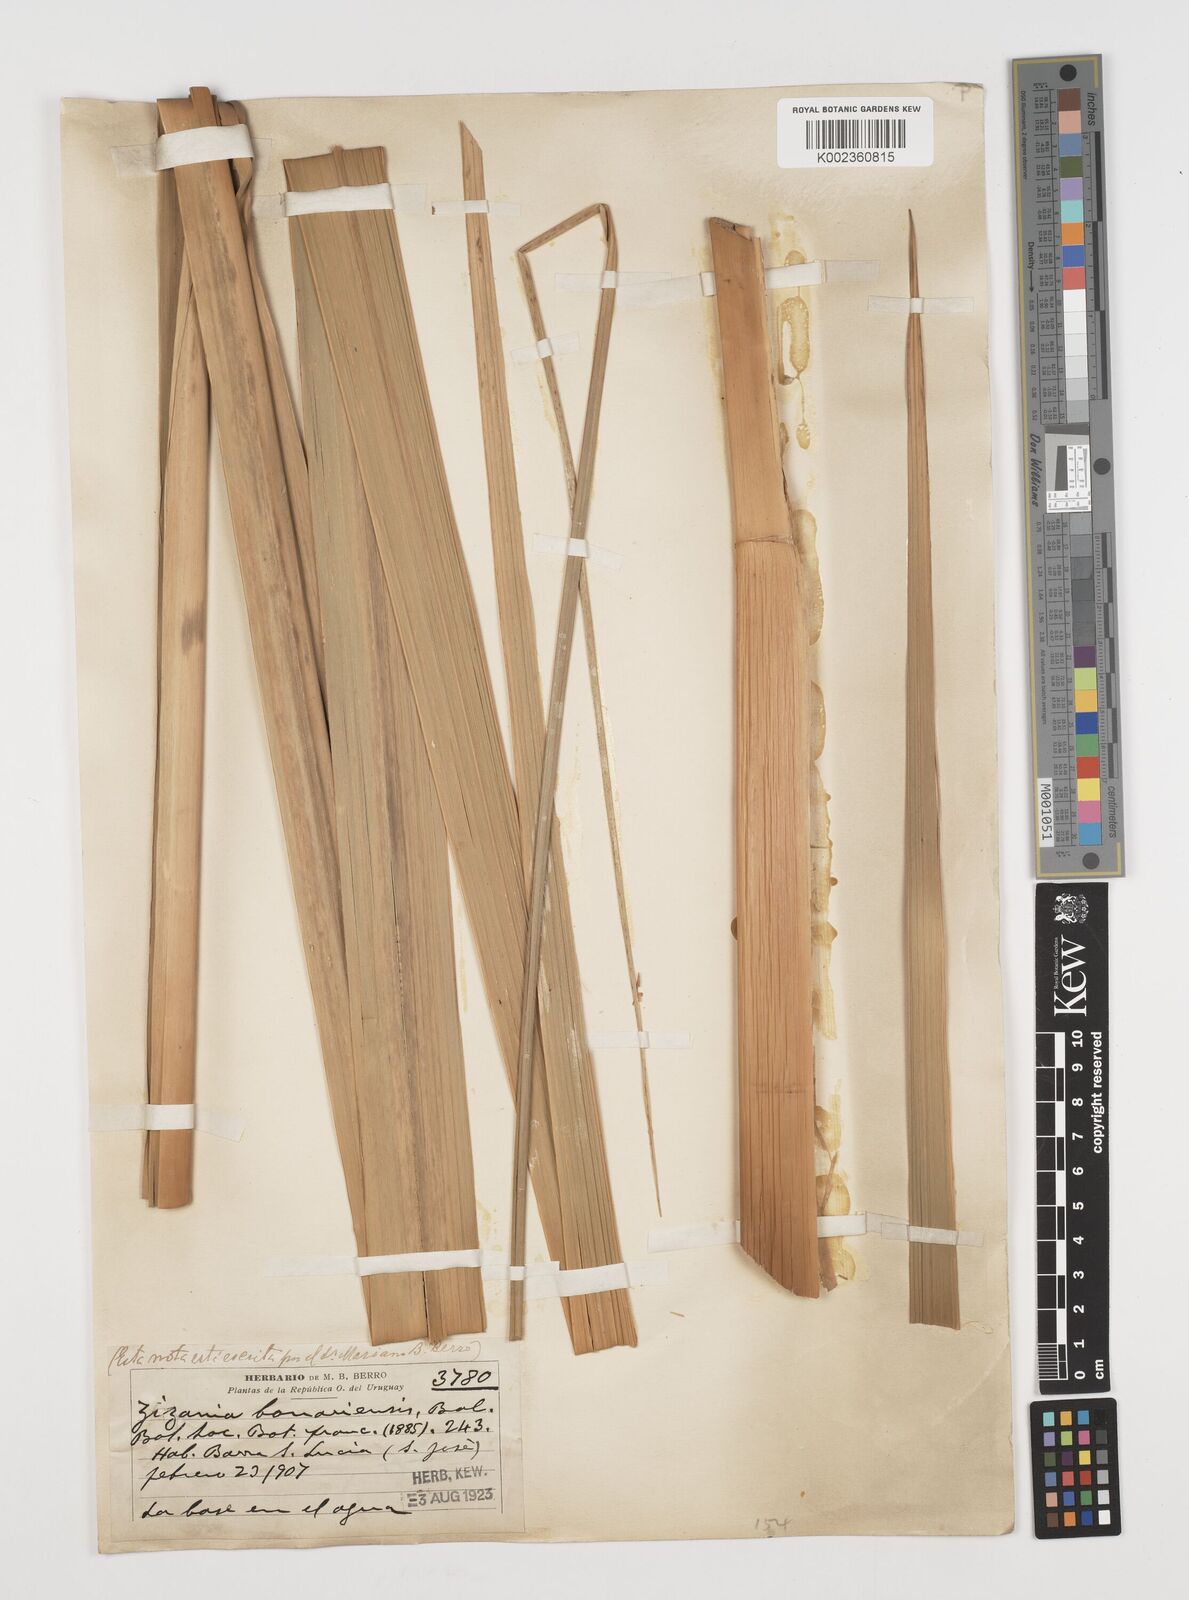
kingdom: Plantae
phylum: Tracheophyta
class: Liliopsida
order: Poales
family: Poaceae
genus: Zizaniopsis
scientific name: Zizaniopsis bonariensis
